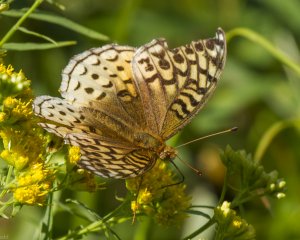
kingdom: Animalia
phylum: Arthropoda
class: Insecta
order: Lepidoptera
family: Nymphalidae
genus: Speyeria
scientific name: Speyeria cybele
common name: Great Spangled Fritillary
